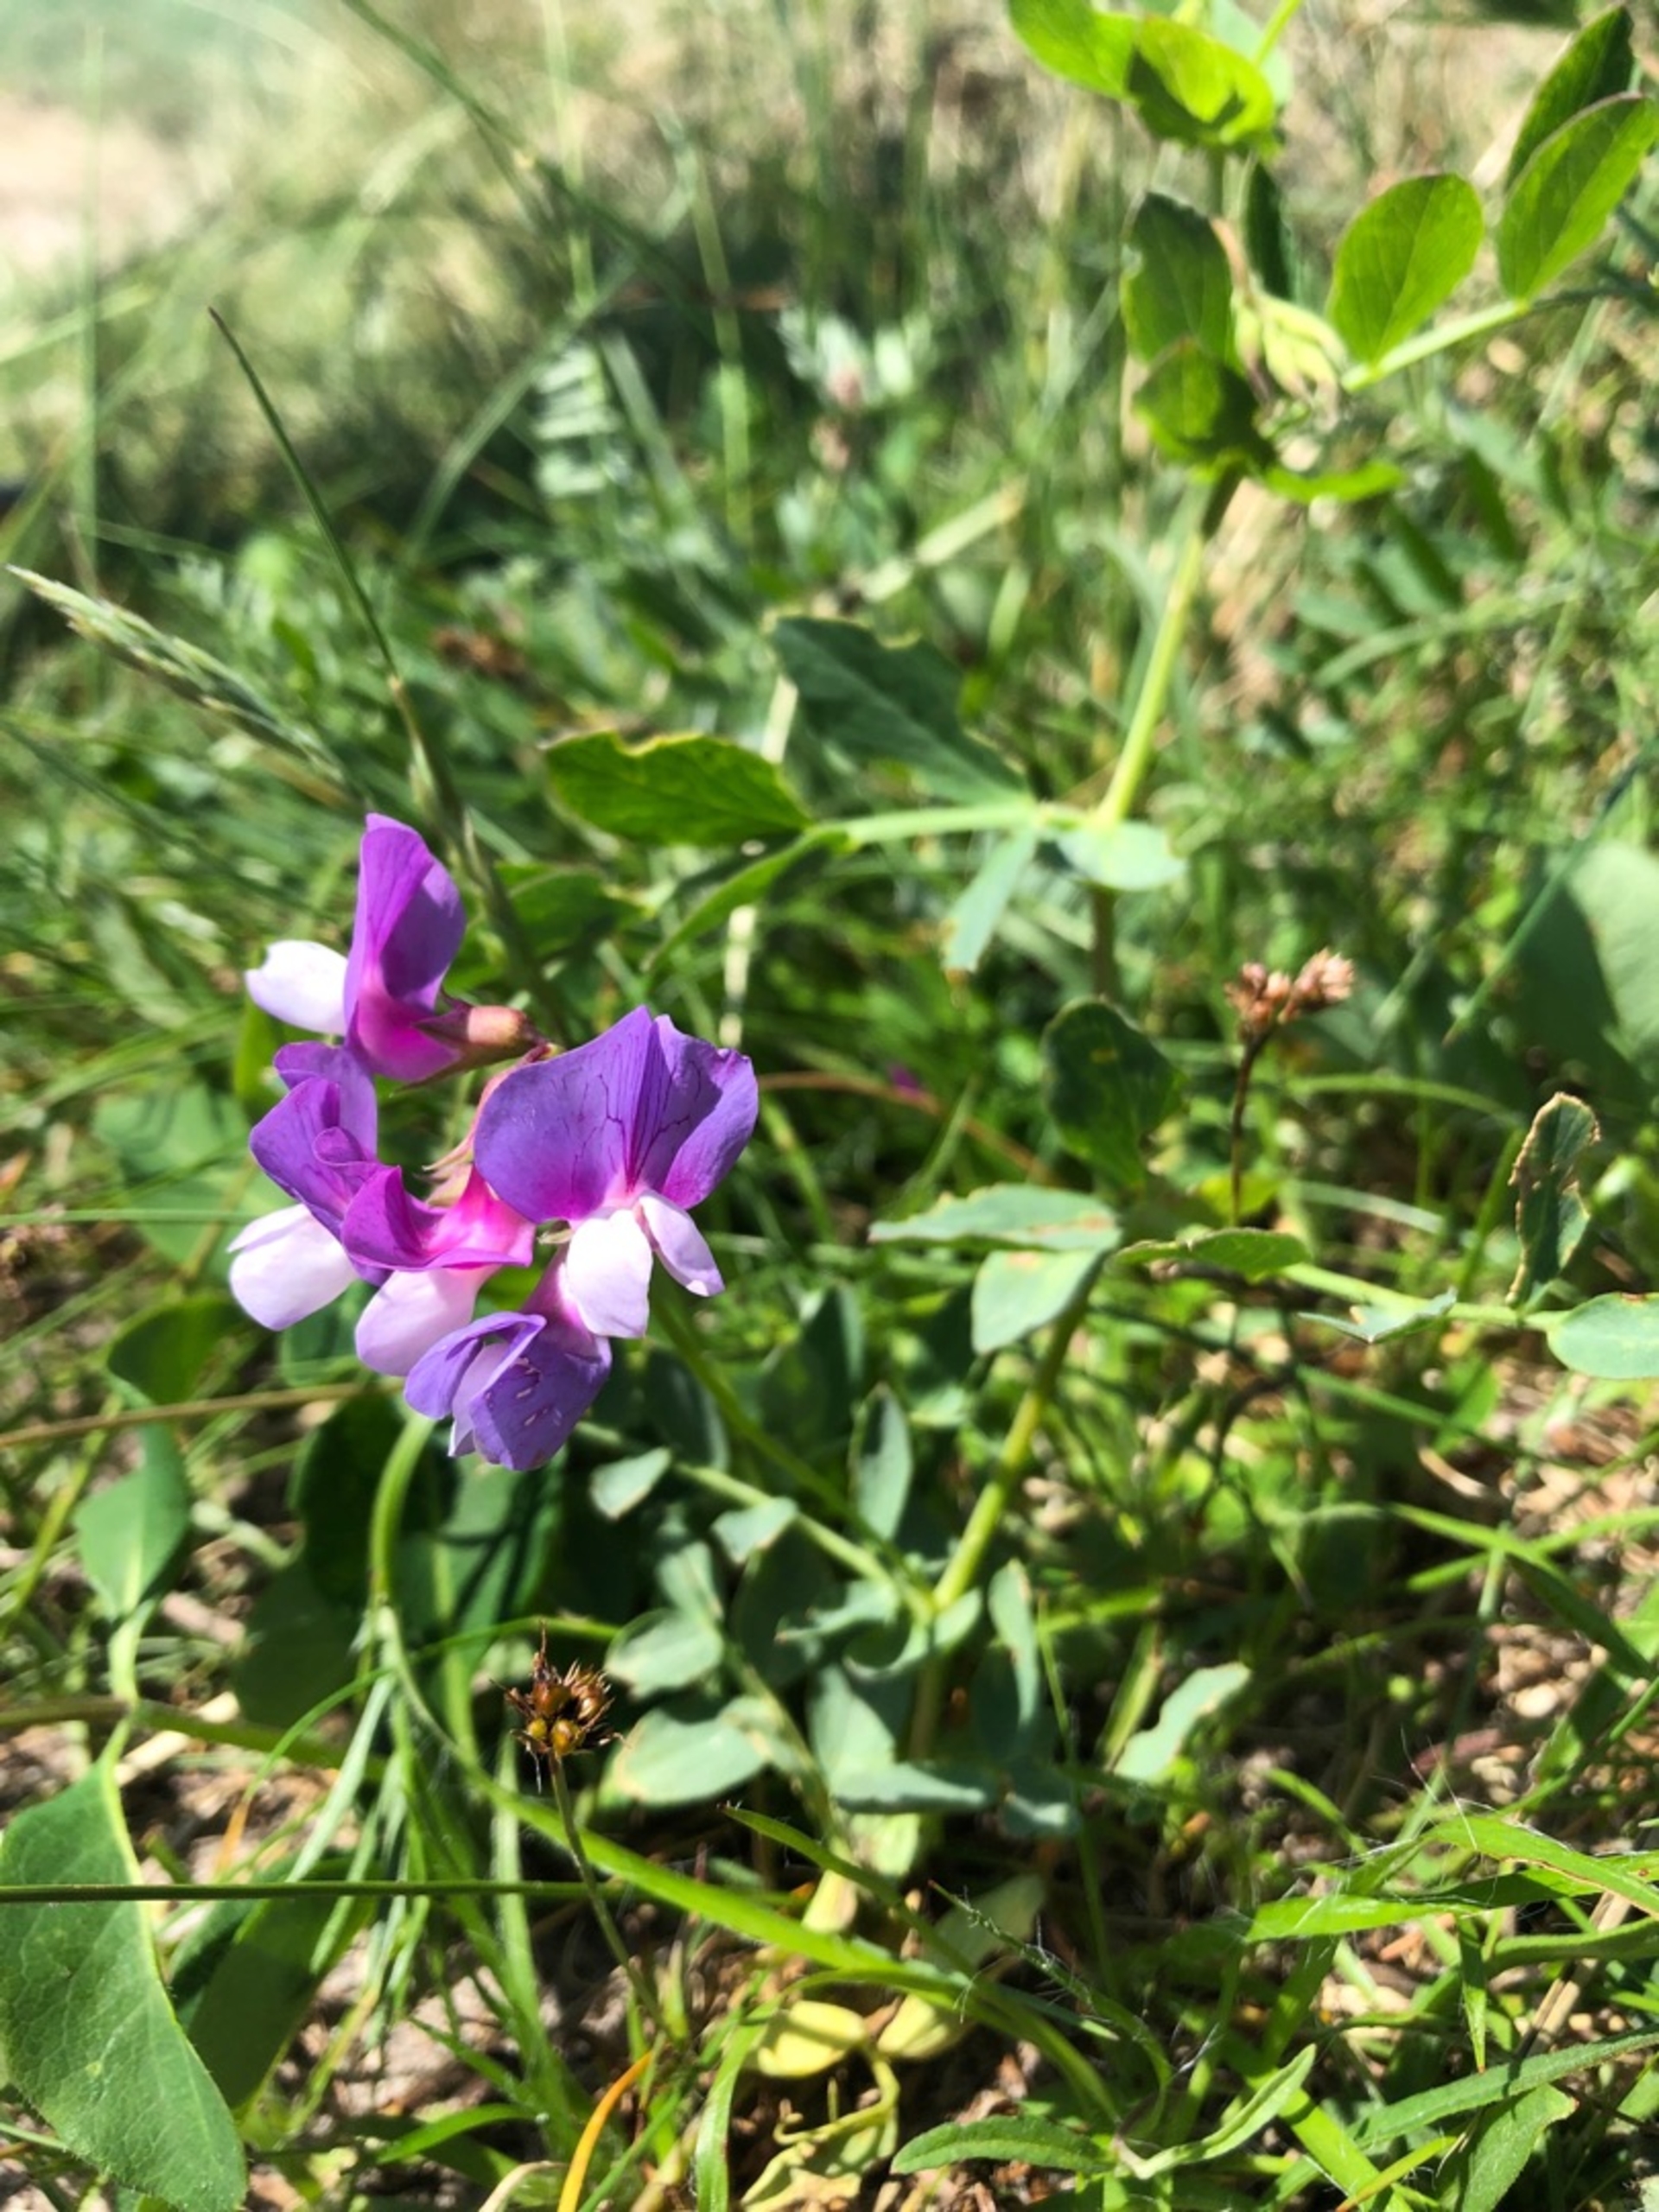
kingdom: Plantae
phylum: Tracheophyta
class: Magnoliopsida
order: Fabales
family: Fabaceae
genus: Lathyrus
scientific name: Lathyrus japonicus
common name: Strand-fladbælg
